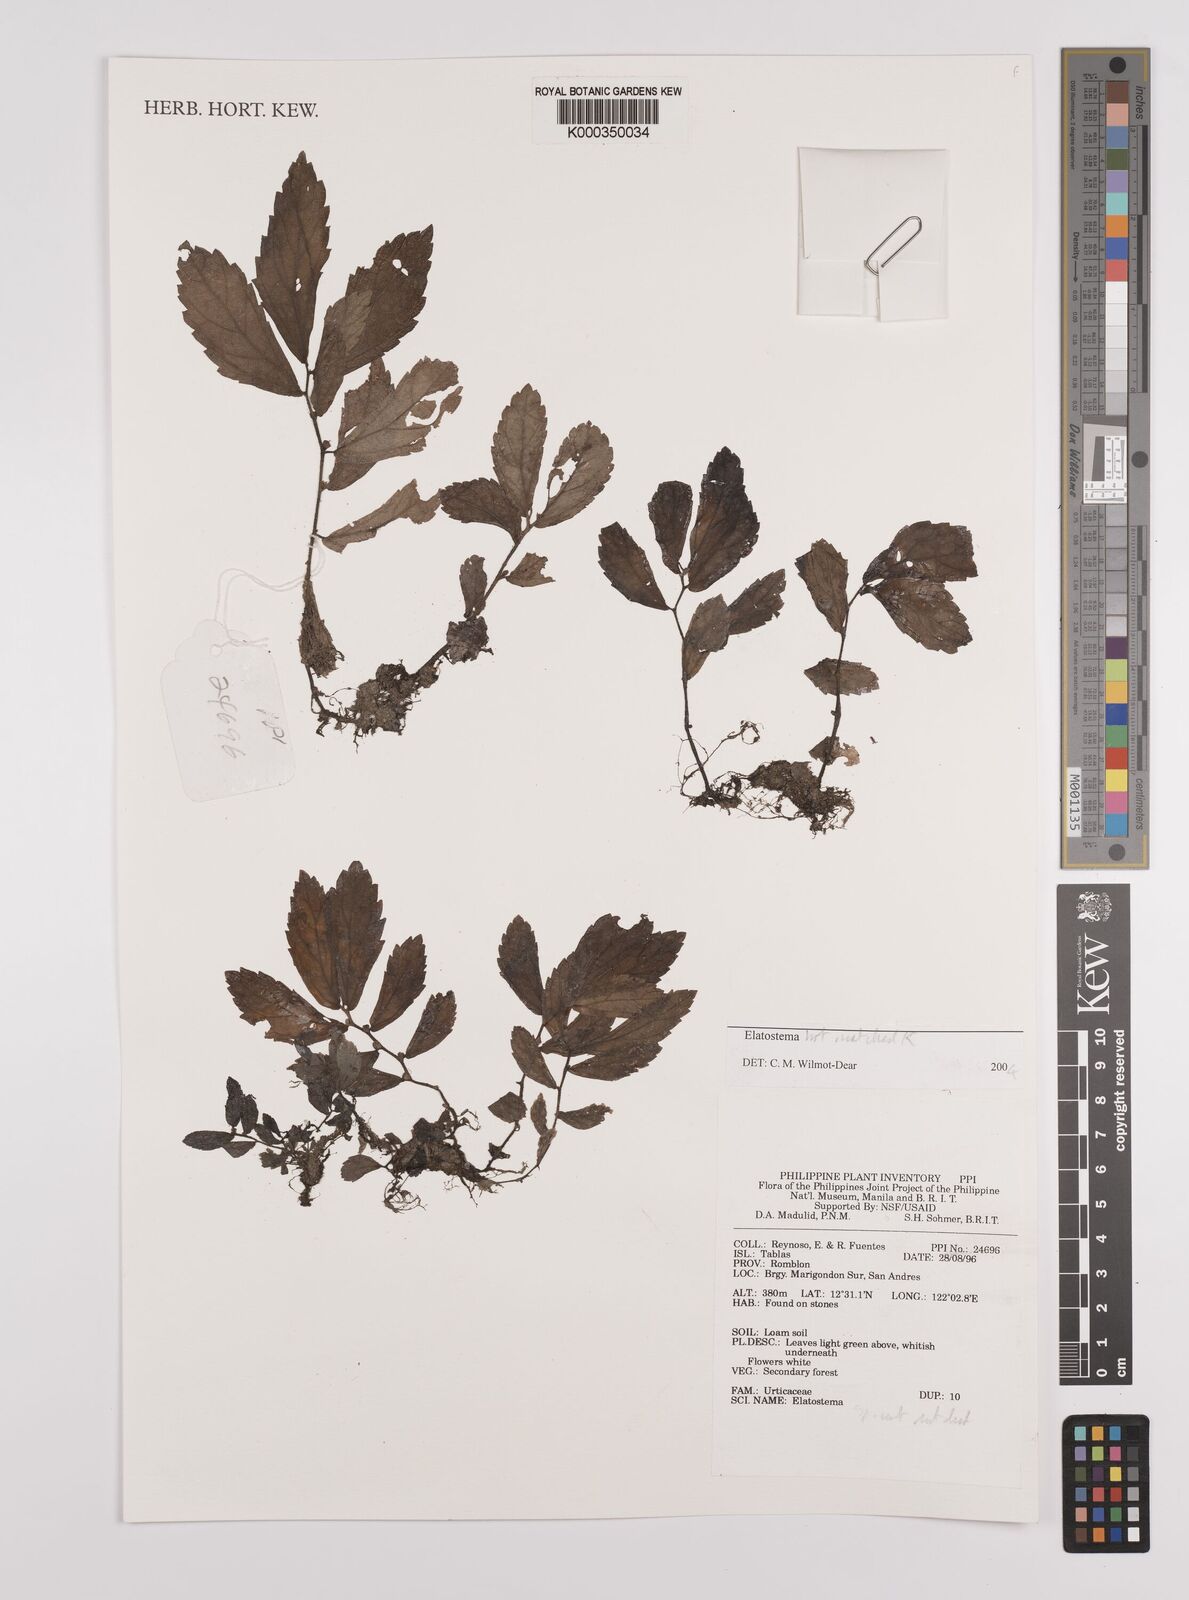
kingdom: Plantae
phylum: Tracheophyta
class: Magnoliopsida
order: Rosales
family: Urticaceae
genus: Elatostema
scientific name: Elatostema
